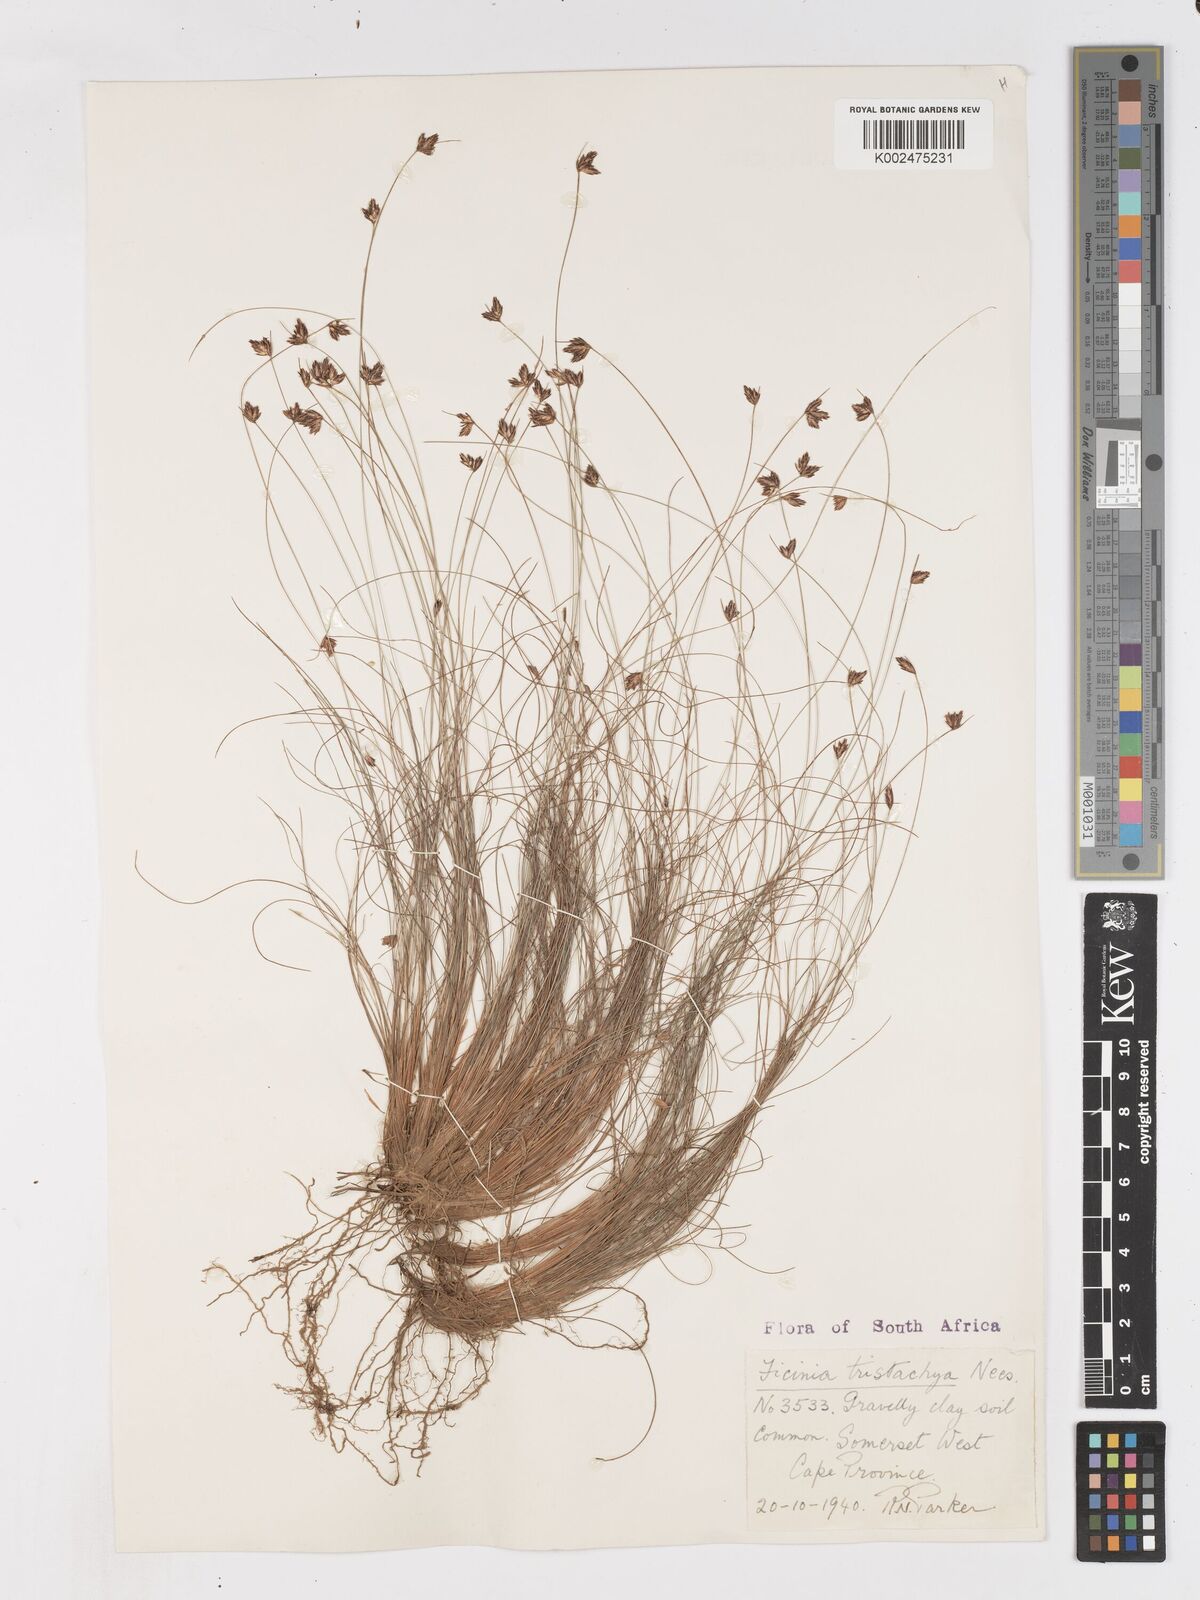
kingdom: Plantae
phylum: Tracheophyta
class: Liliopsida
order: Poales
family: Cyperaceae
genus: Ficinia
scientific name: Ficinia tristachya
